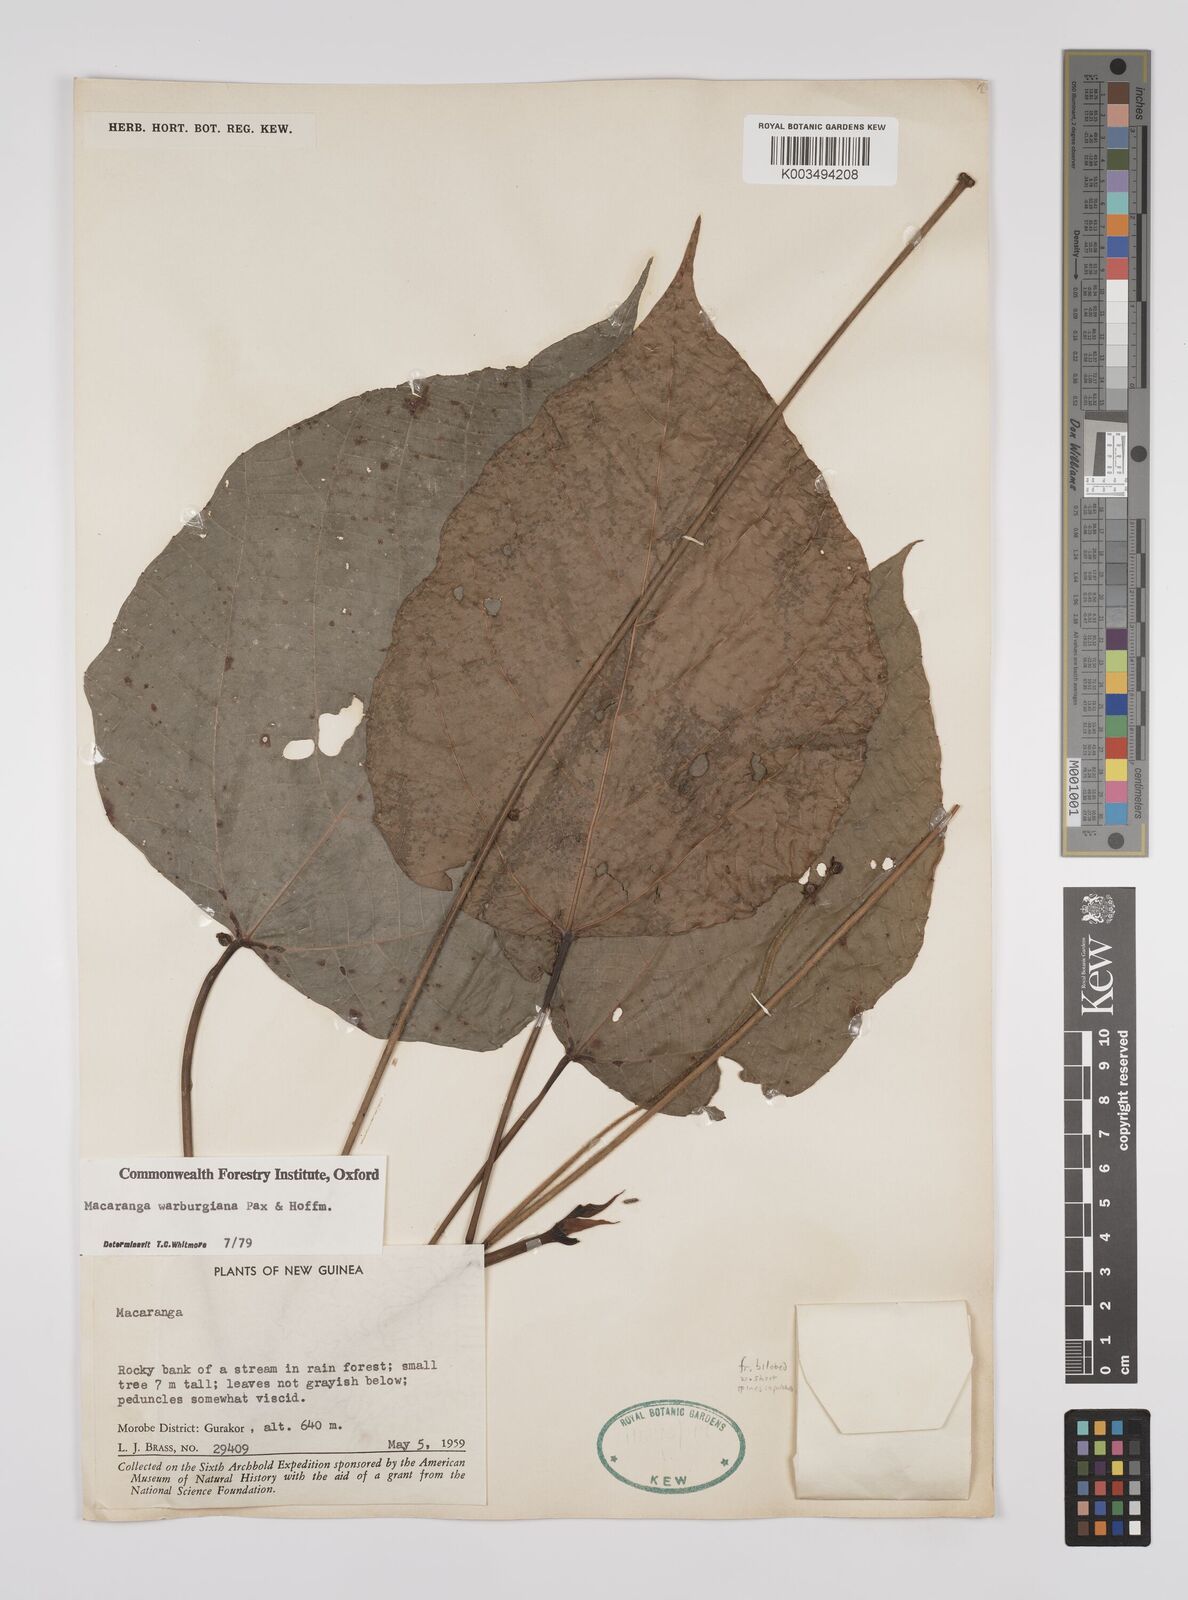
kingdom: Plantae
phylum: Tracheophyta
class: Magnoliopsida
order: Malpighiales
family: Euphorbiaceae
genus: Macaranga
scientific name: Macaranga warburgiana
